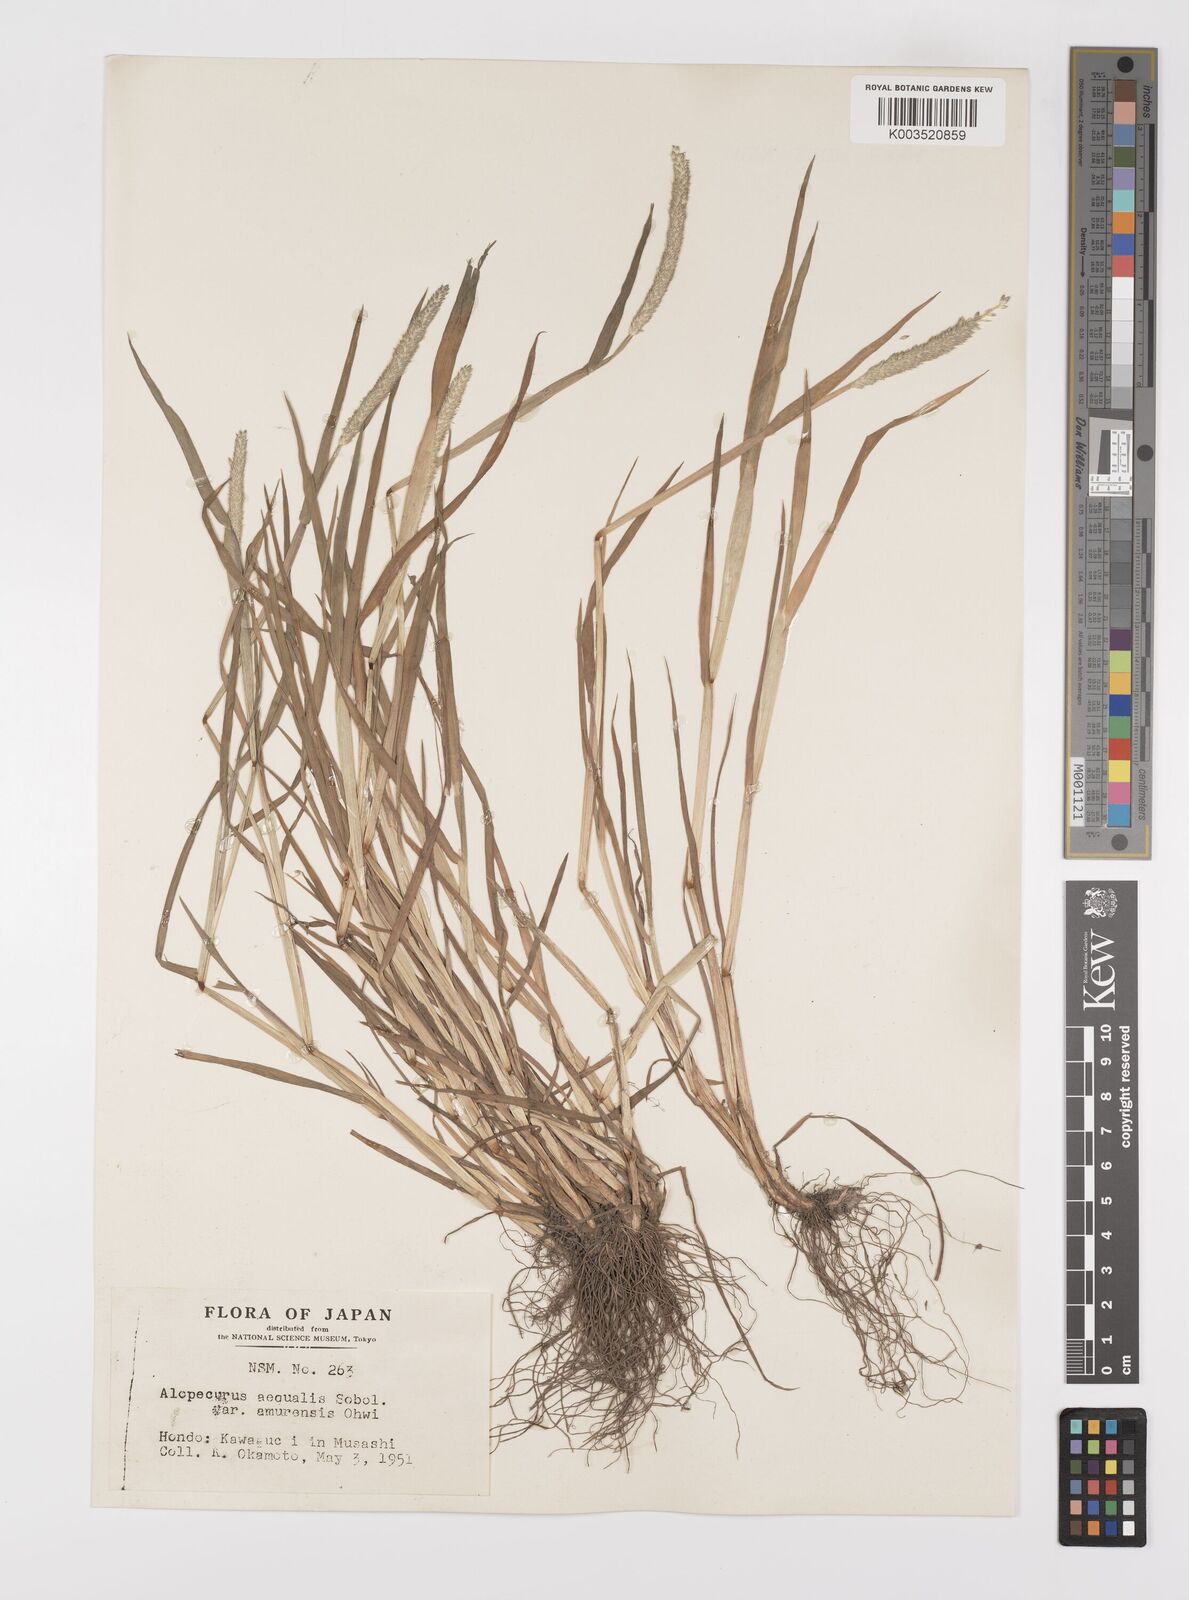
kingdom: Plantae
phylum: Tracheophyta
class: Liliopsida
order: Poales
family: Poaceae
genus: Alopecurus
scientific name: Alopecurus aequalis
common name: Orange foxtail
